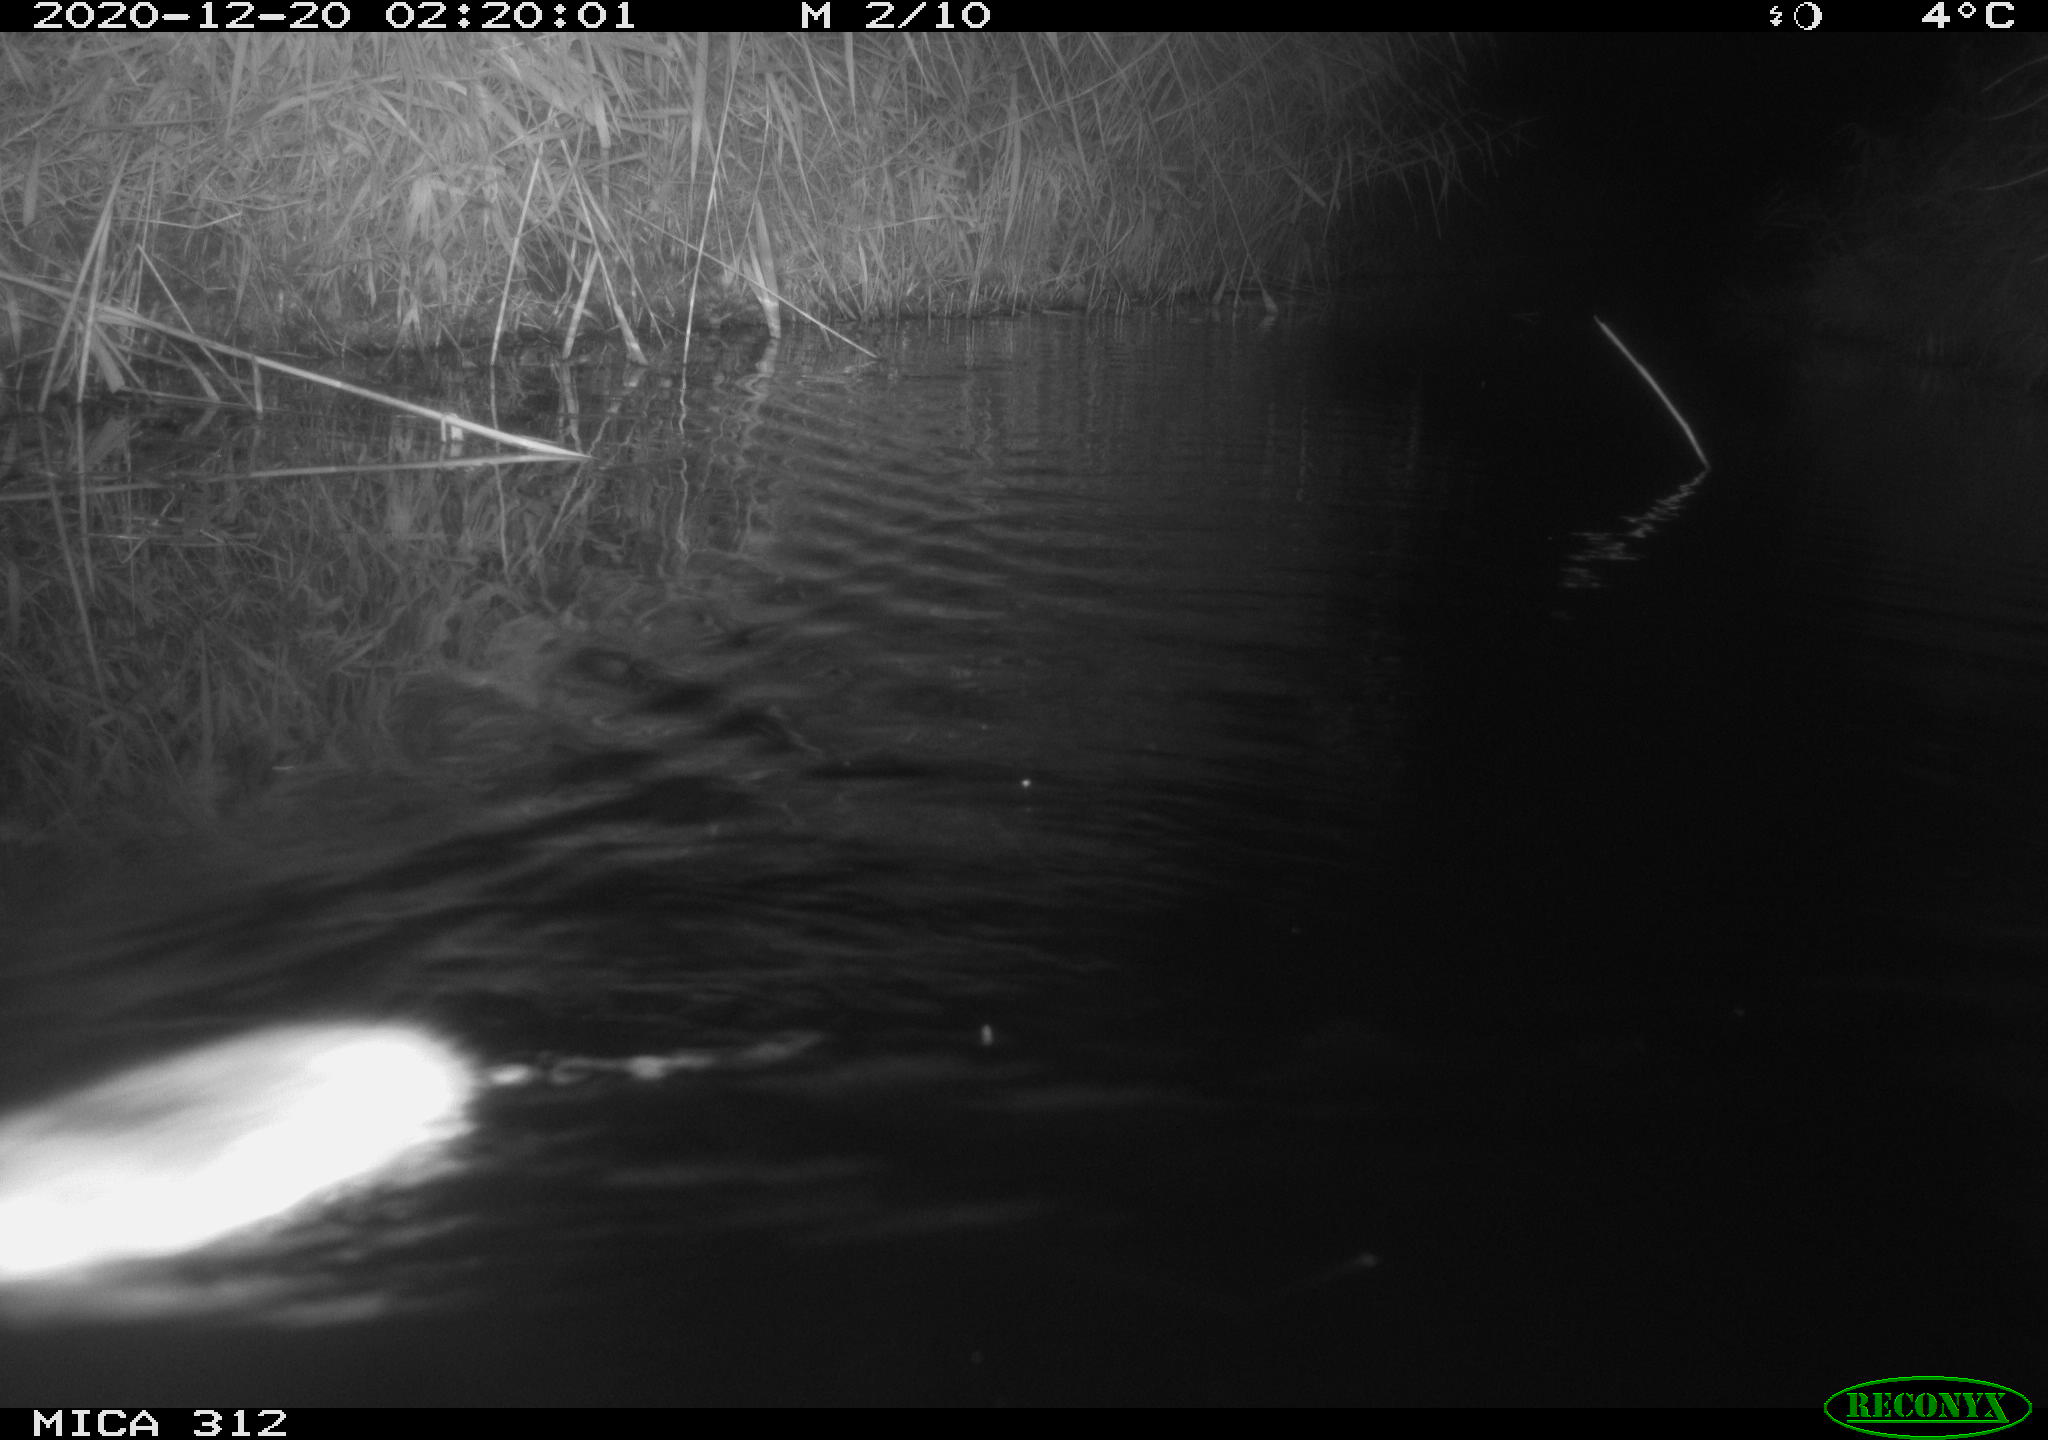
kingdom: Animalia
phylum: Chordata
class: Mammalia
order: Rodentia
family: Muridae
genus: Rattus
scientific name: Rattus norvegicus
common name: Brown rat
